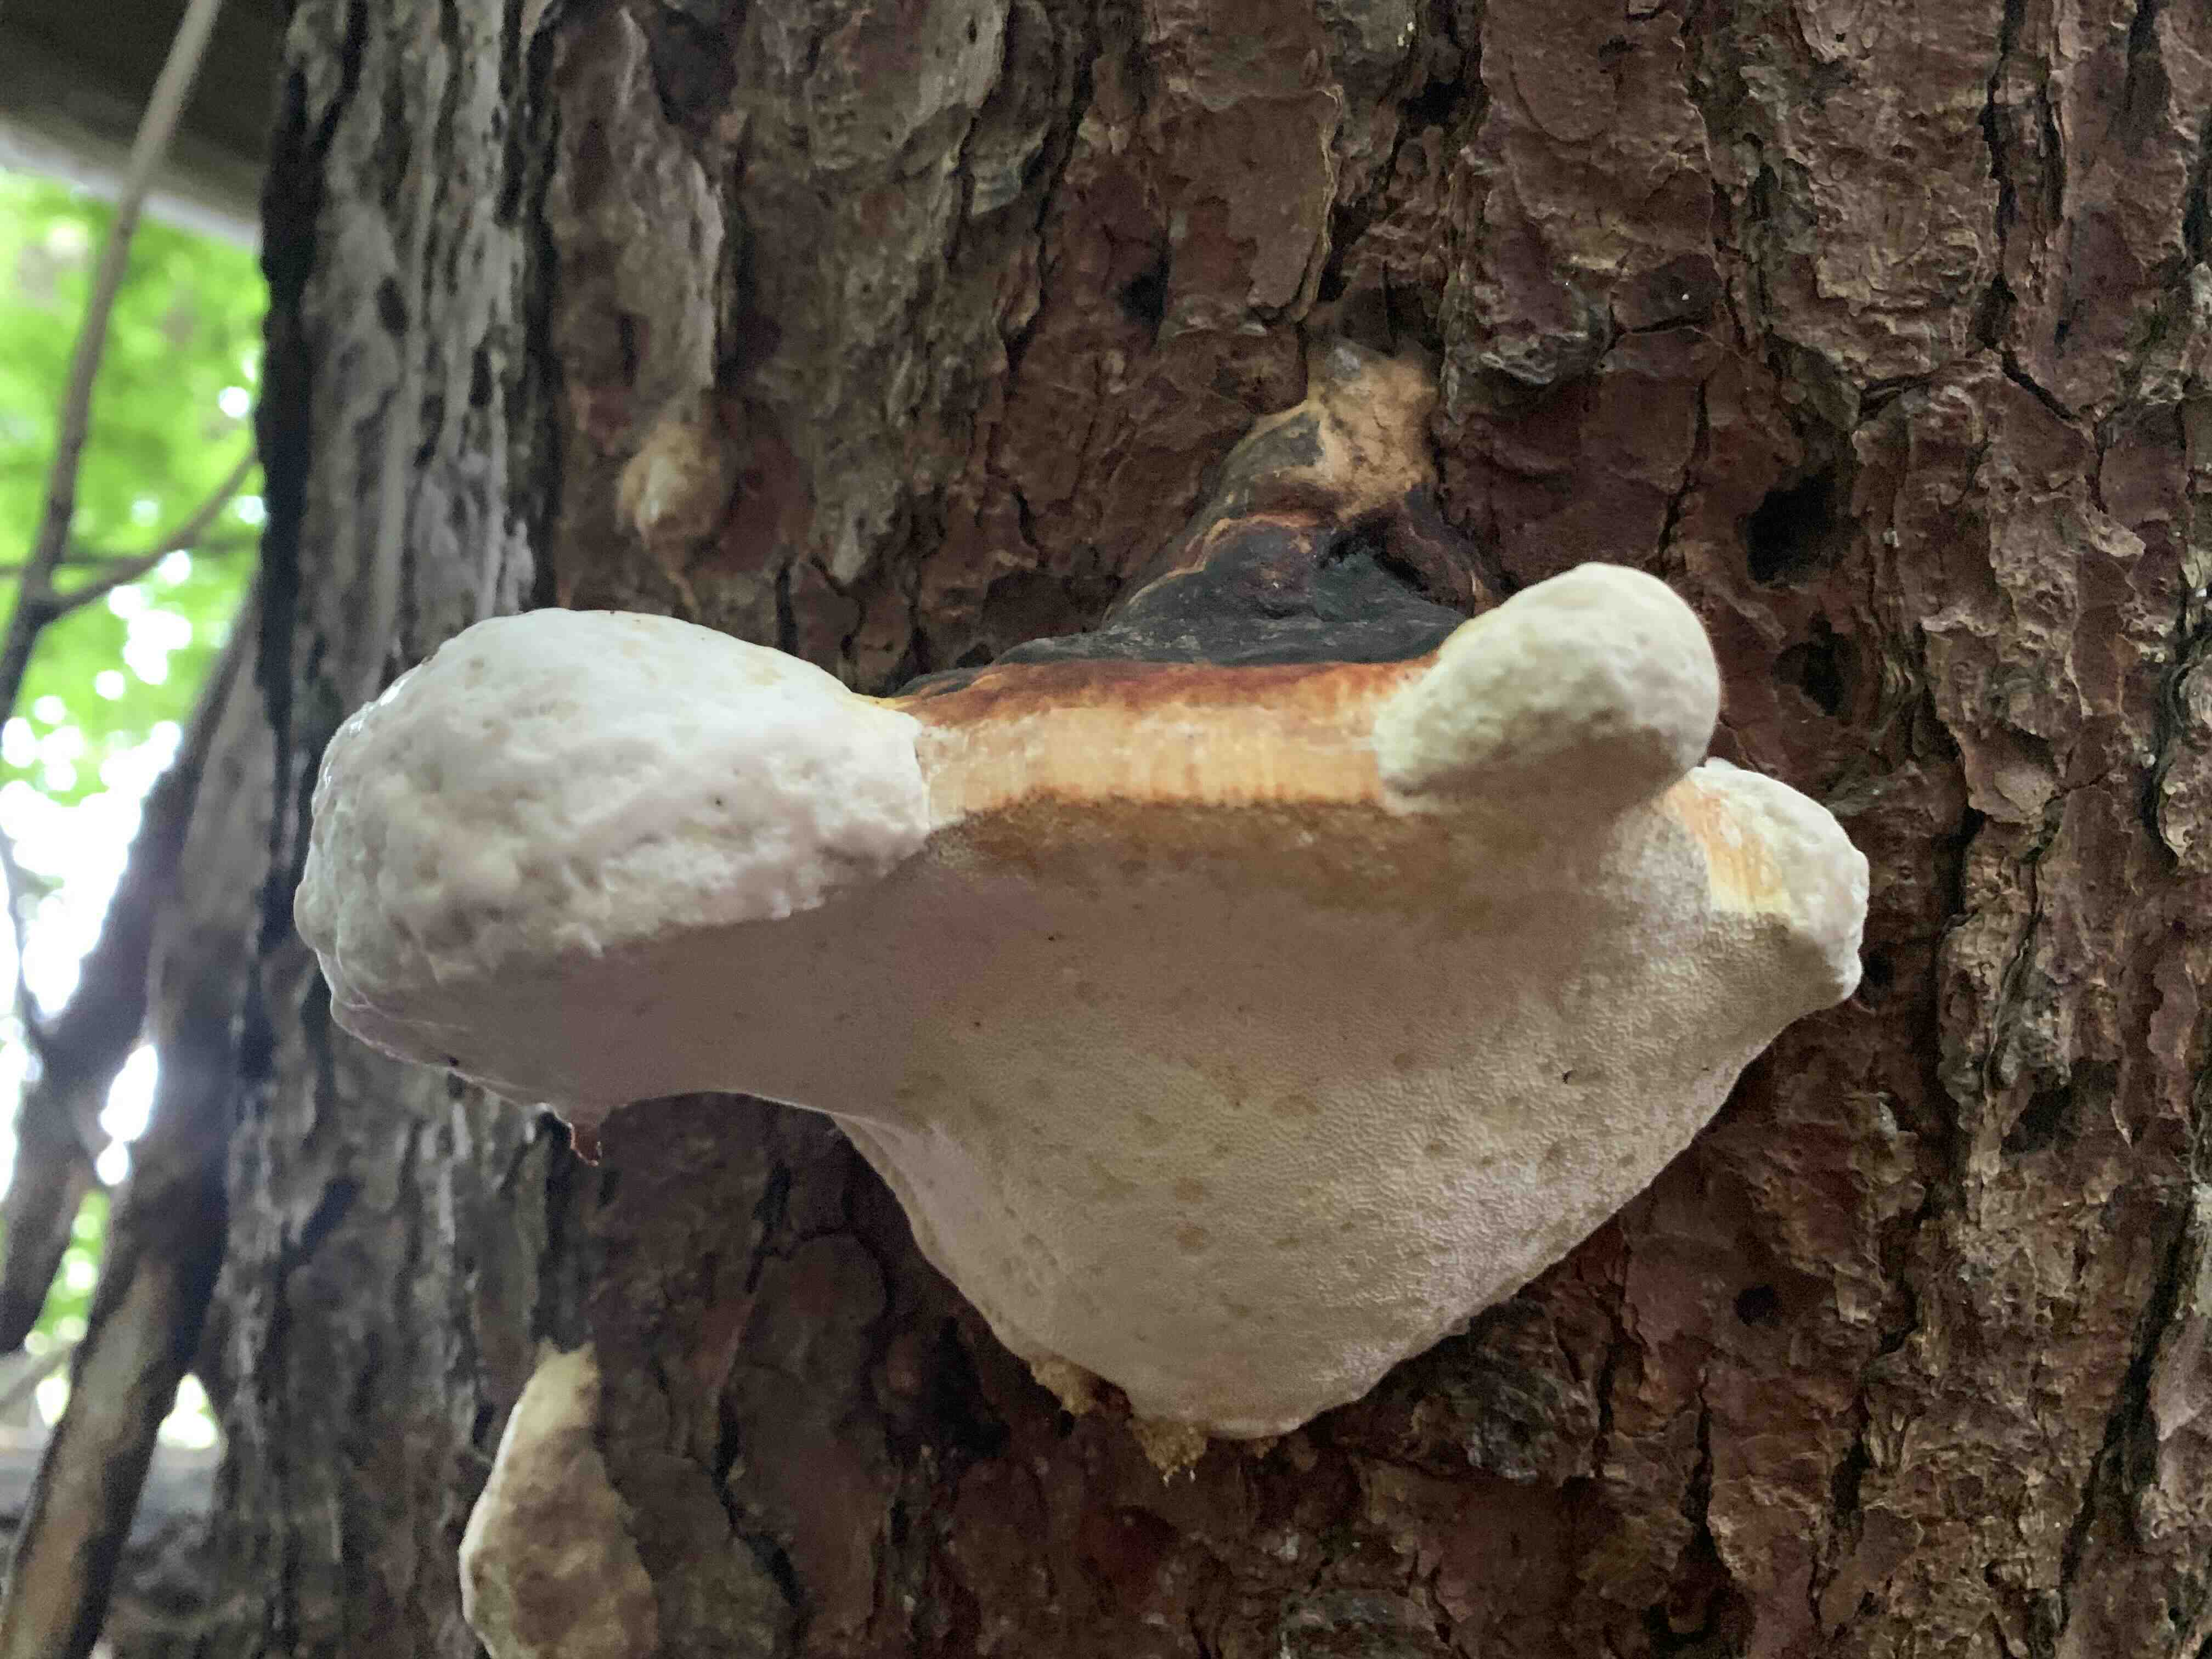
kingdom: Fungi
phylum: Basidiomycota
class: Agaricomycetes
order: Polyporales
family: Fomitopsidaceae
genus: Fomitopsis
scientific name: Fomitopsis pinicola
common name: randbæltet hovporesvamp
